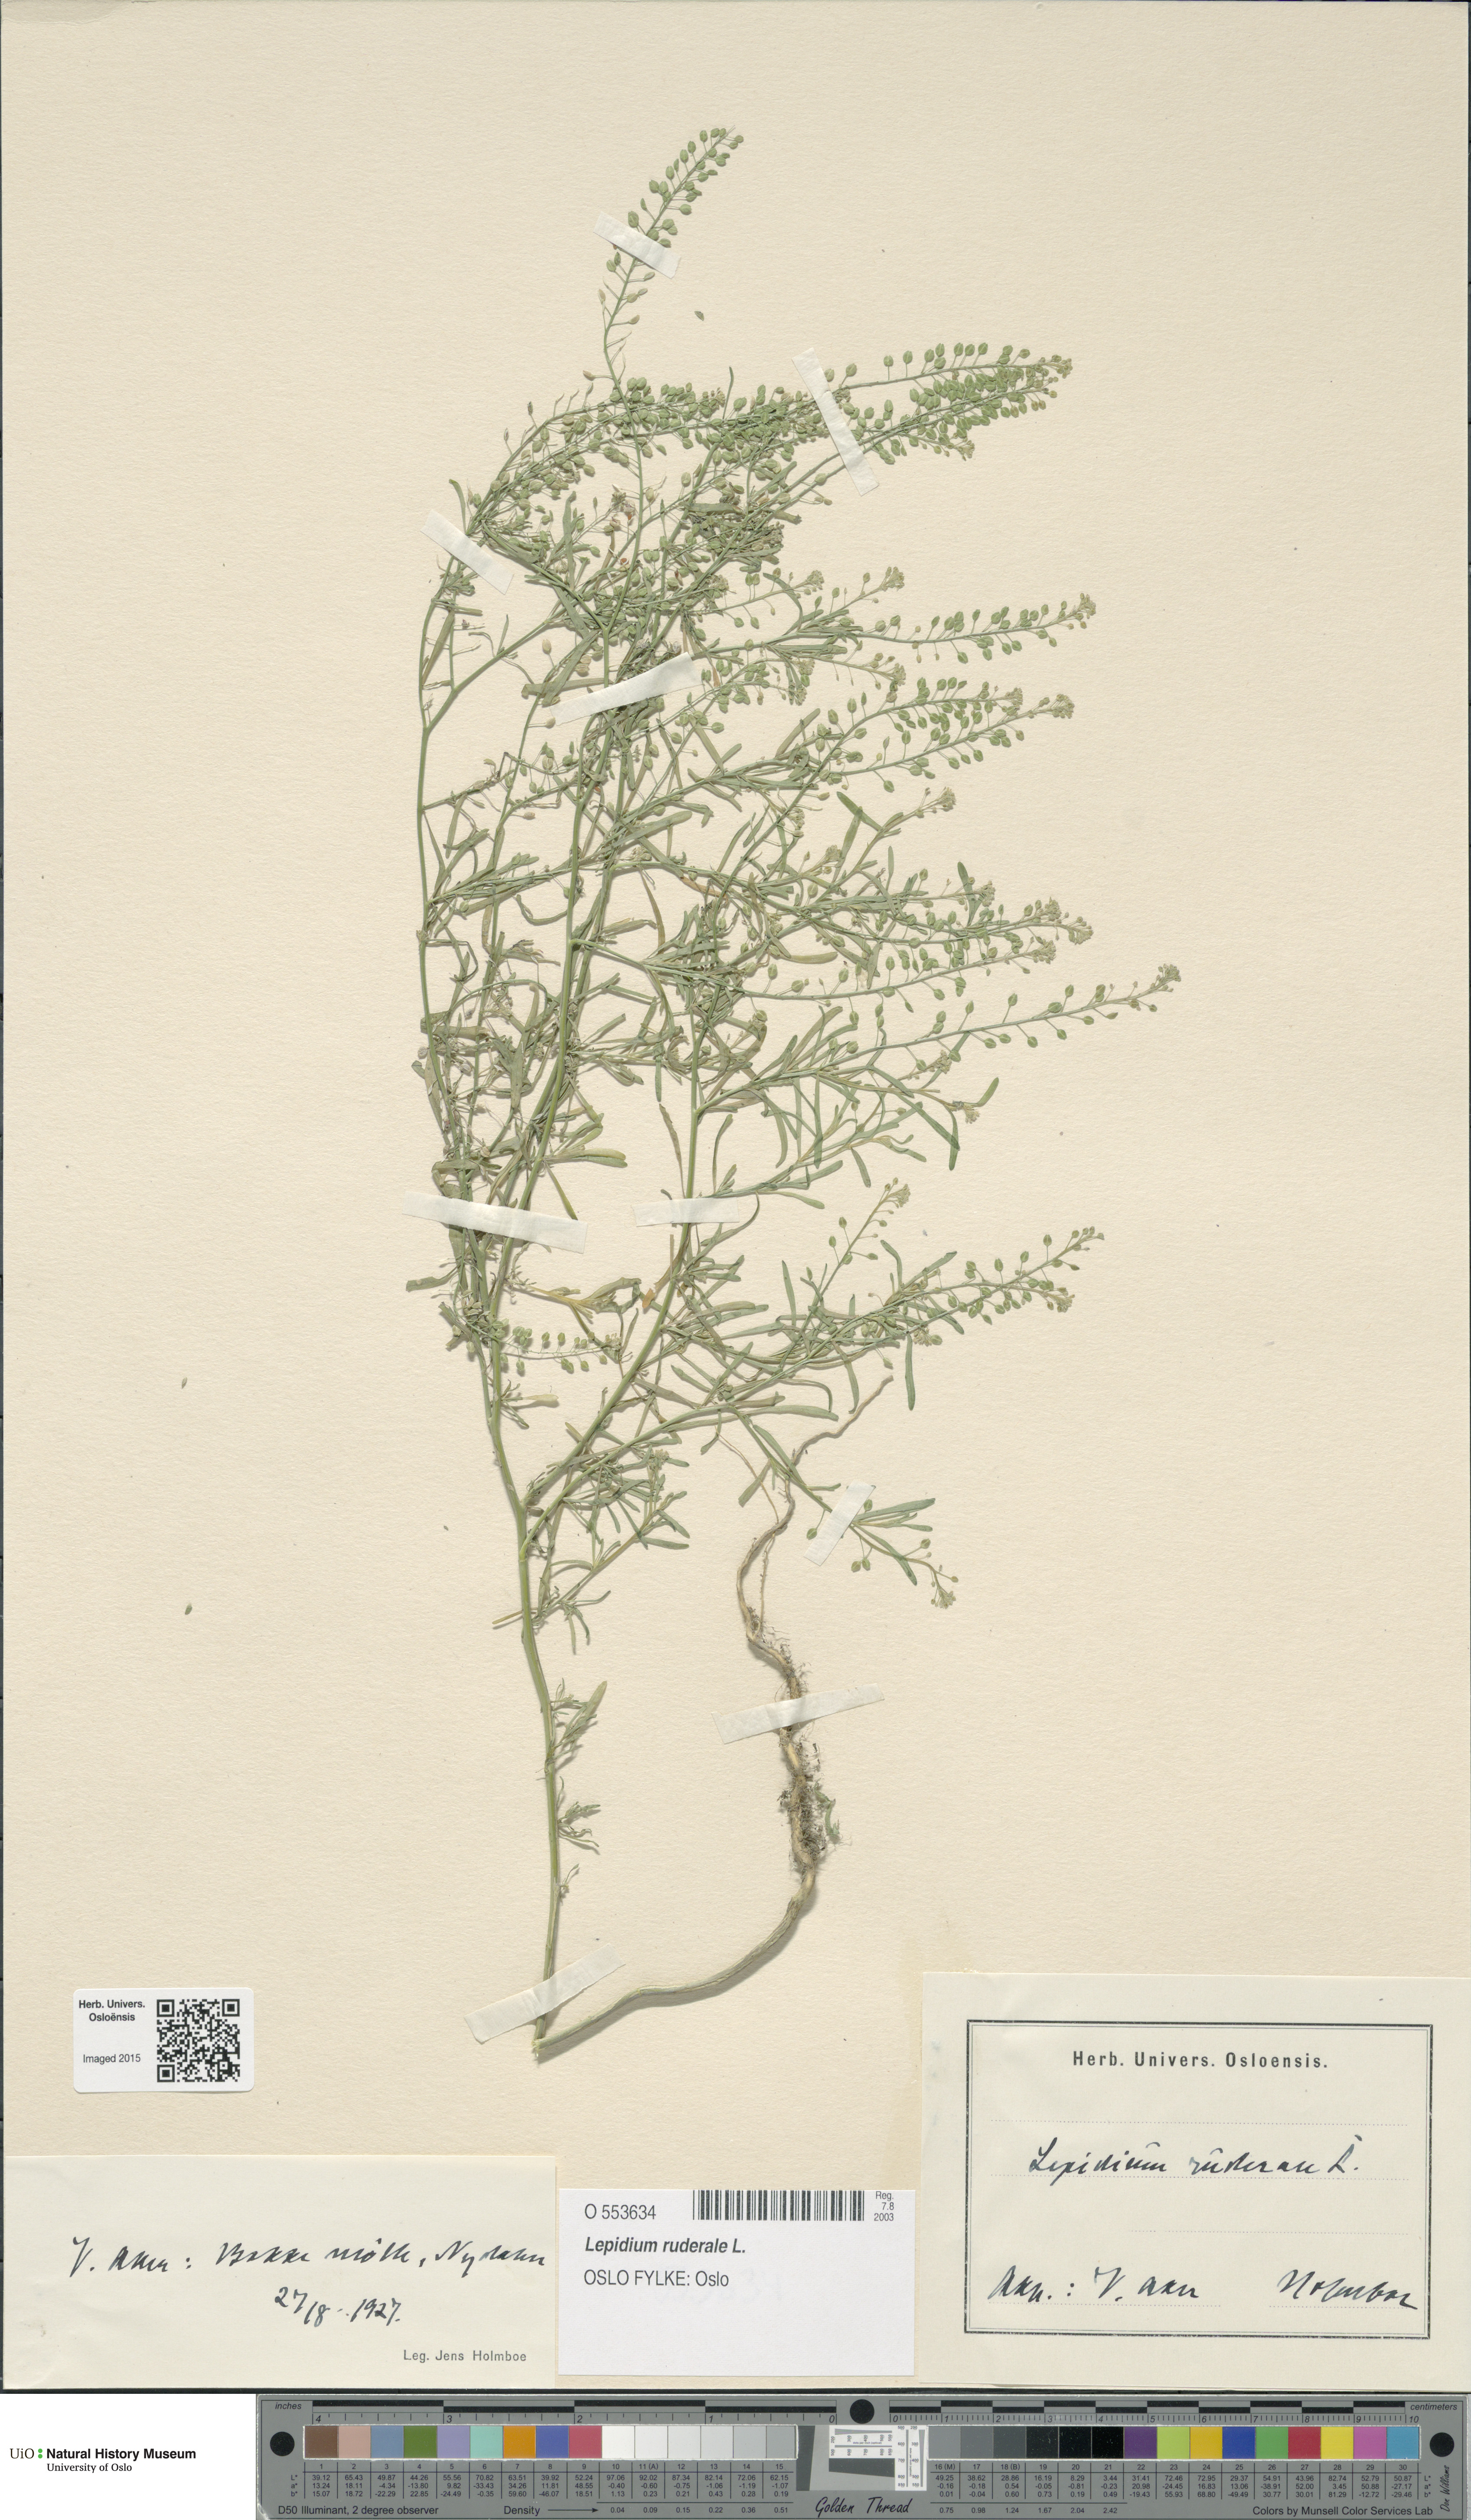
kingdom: Plantae
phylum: Tracheophyta
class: Magnoliopsida
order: Brassicales
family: Brassicaceae
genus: Lepidium
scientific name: Lepidium ruderale
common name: Narrow-leaved pepperwort
